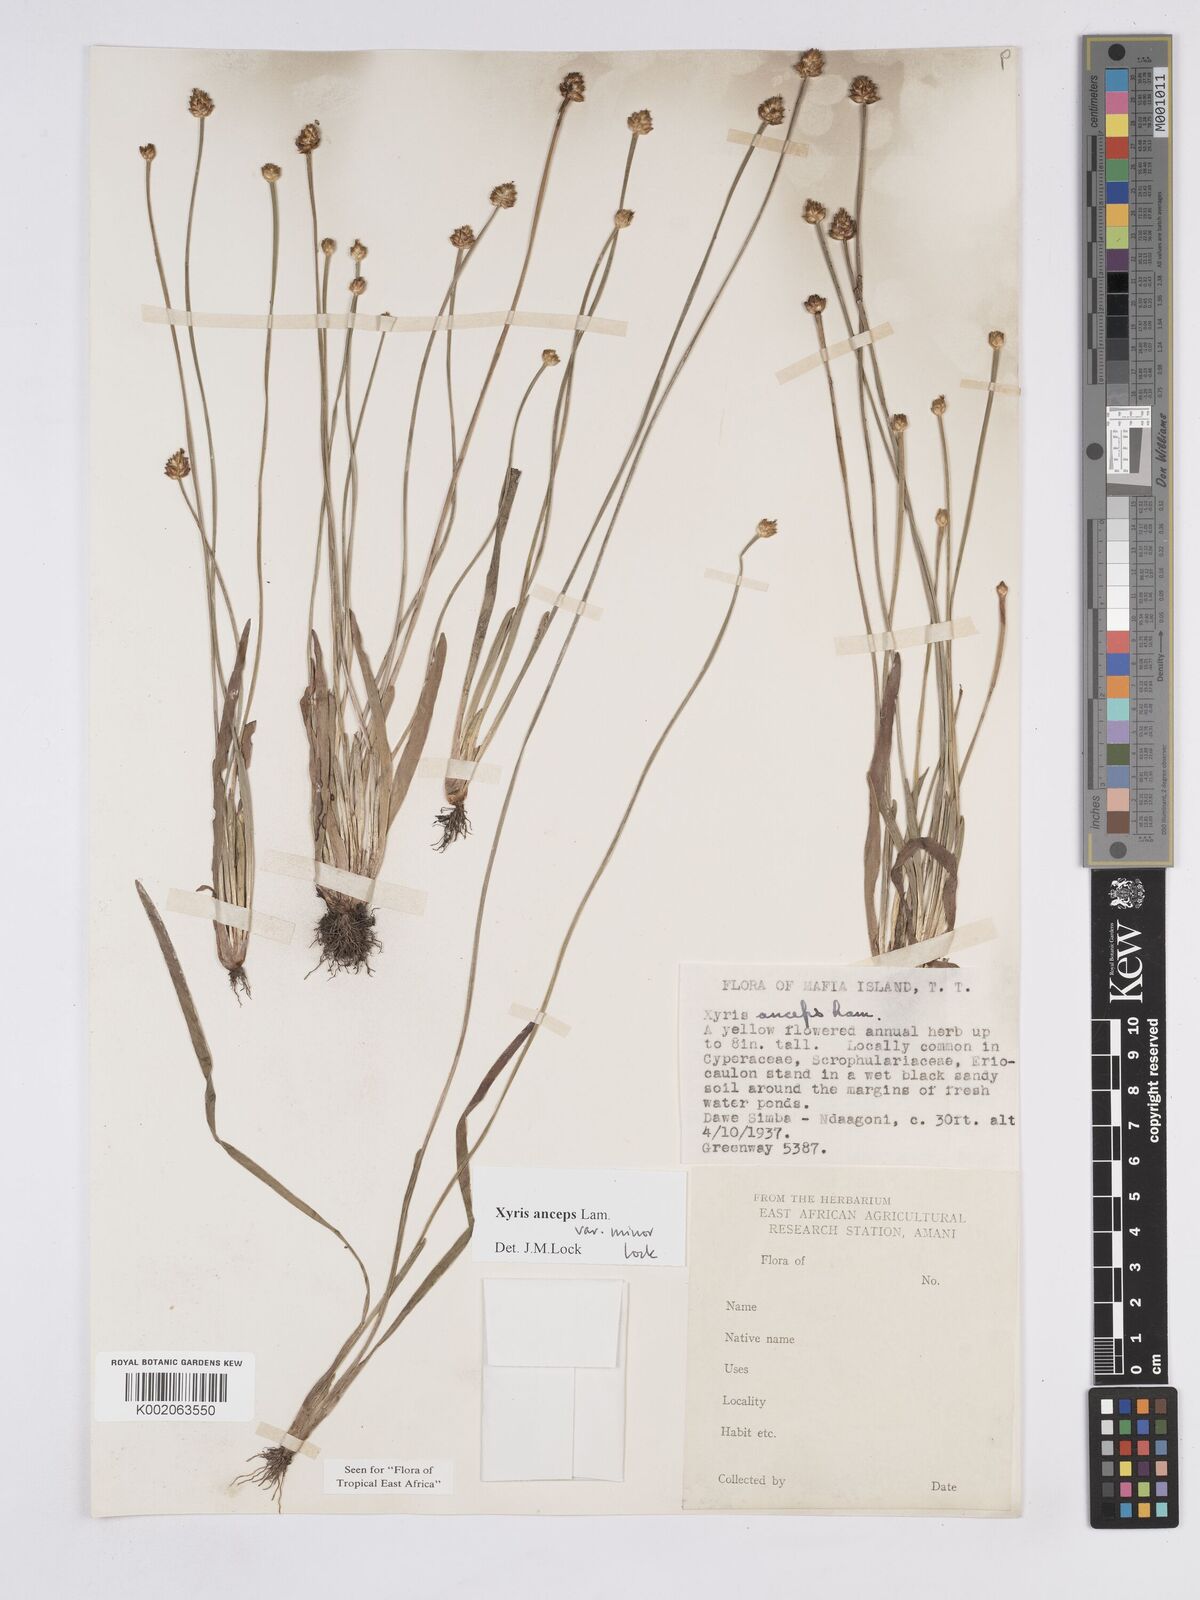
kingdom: Plantae
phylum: Tracheophyta
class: Liliopsida
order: Poales
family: Xyridaceae
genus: Xyris
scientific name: Xyris anceps
